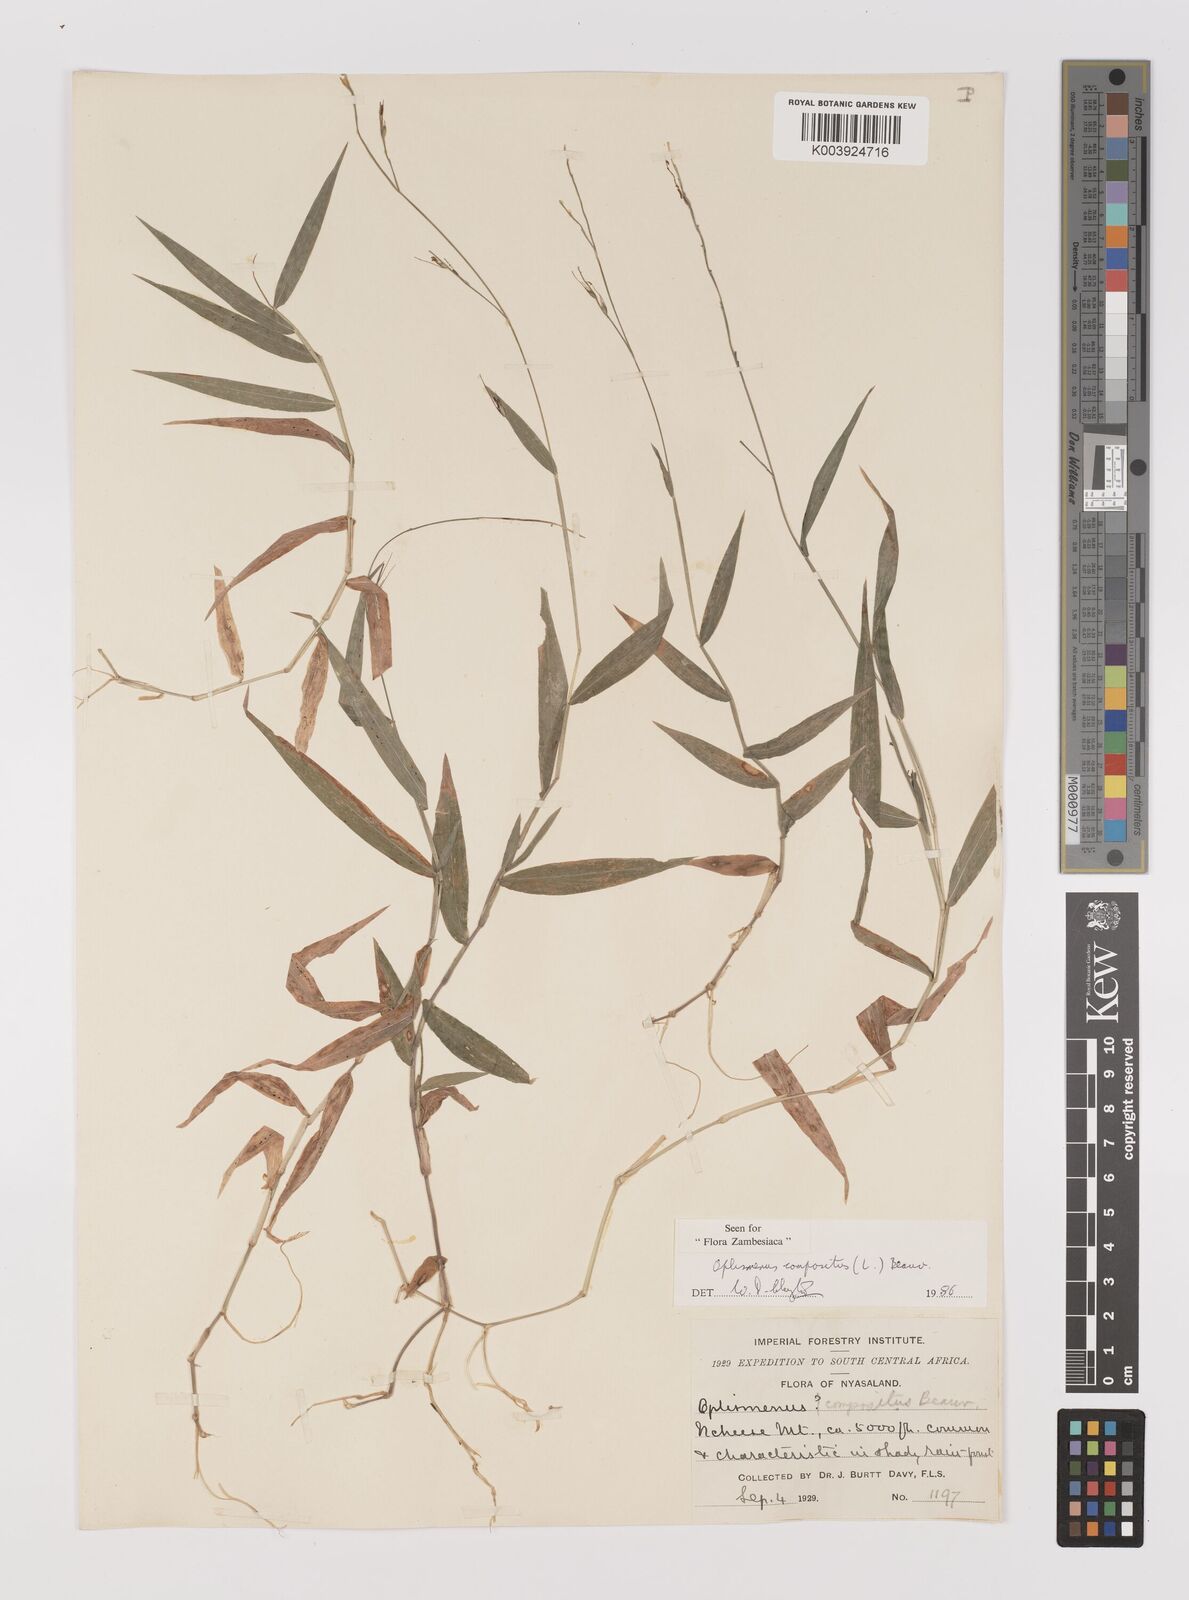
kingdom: Plantae
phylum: Tracheophyta
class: Liliopsida
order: Poales
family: Poaceae
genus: Oplismenus
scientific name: Oplismenus compositus
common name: Running mountain grass
